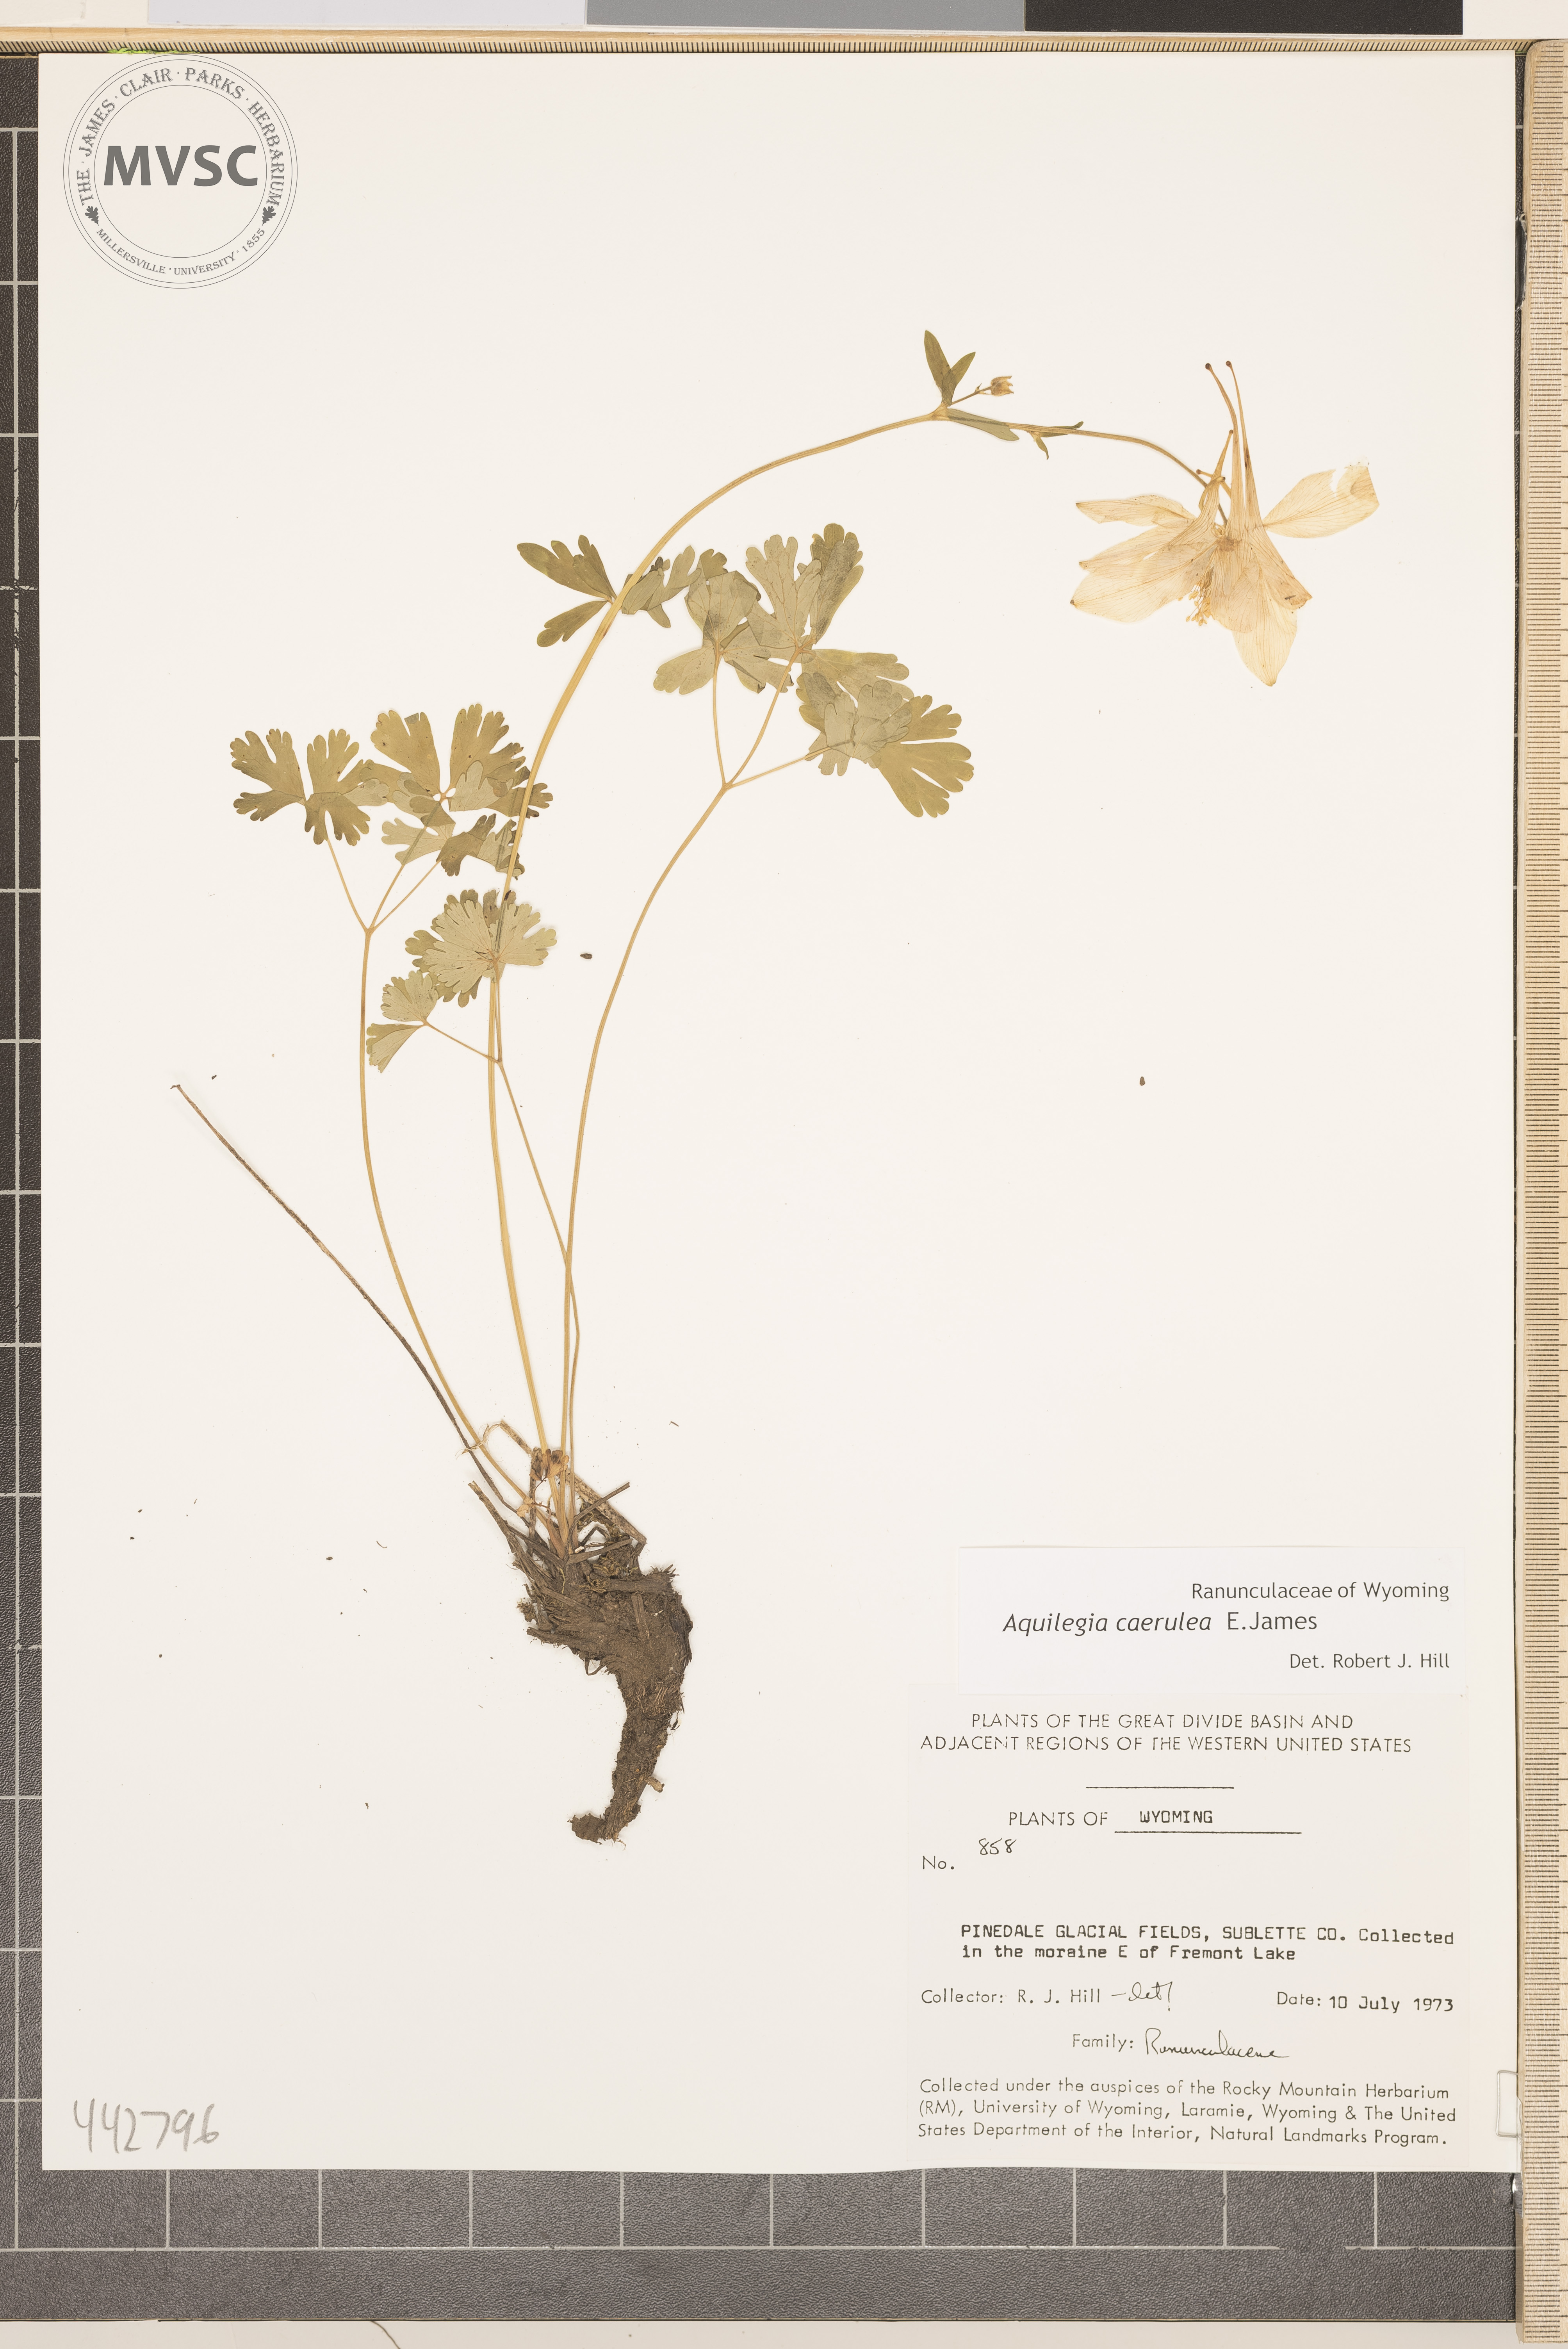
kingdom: Plantae
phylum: Tracheophyta
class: Magnoliopsida
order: Ranunculales
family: Ranunculaceae
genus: Aquilegia
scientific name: Aquilegia coerulea
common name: Rocky mountain columbine
